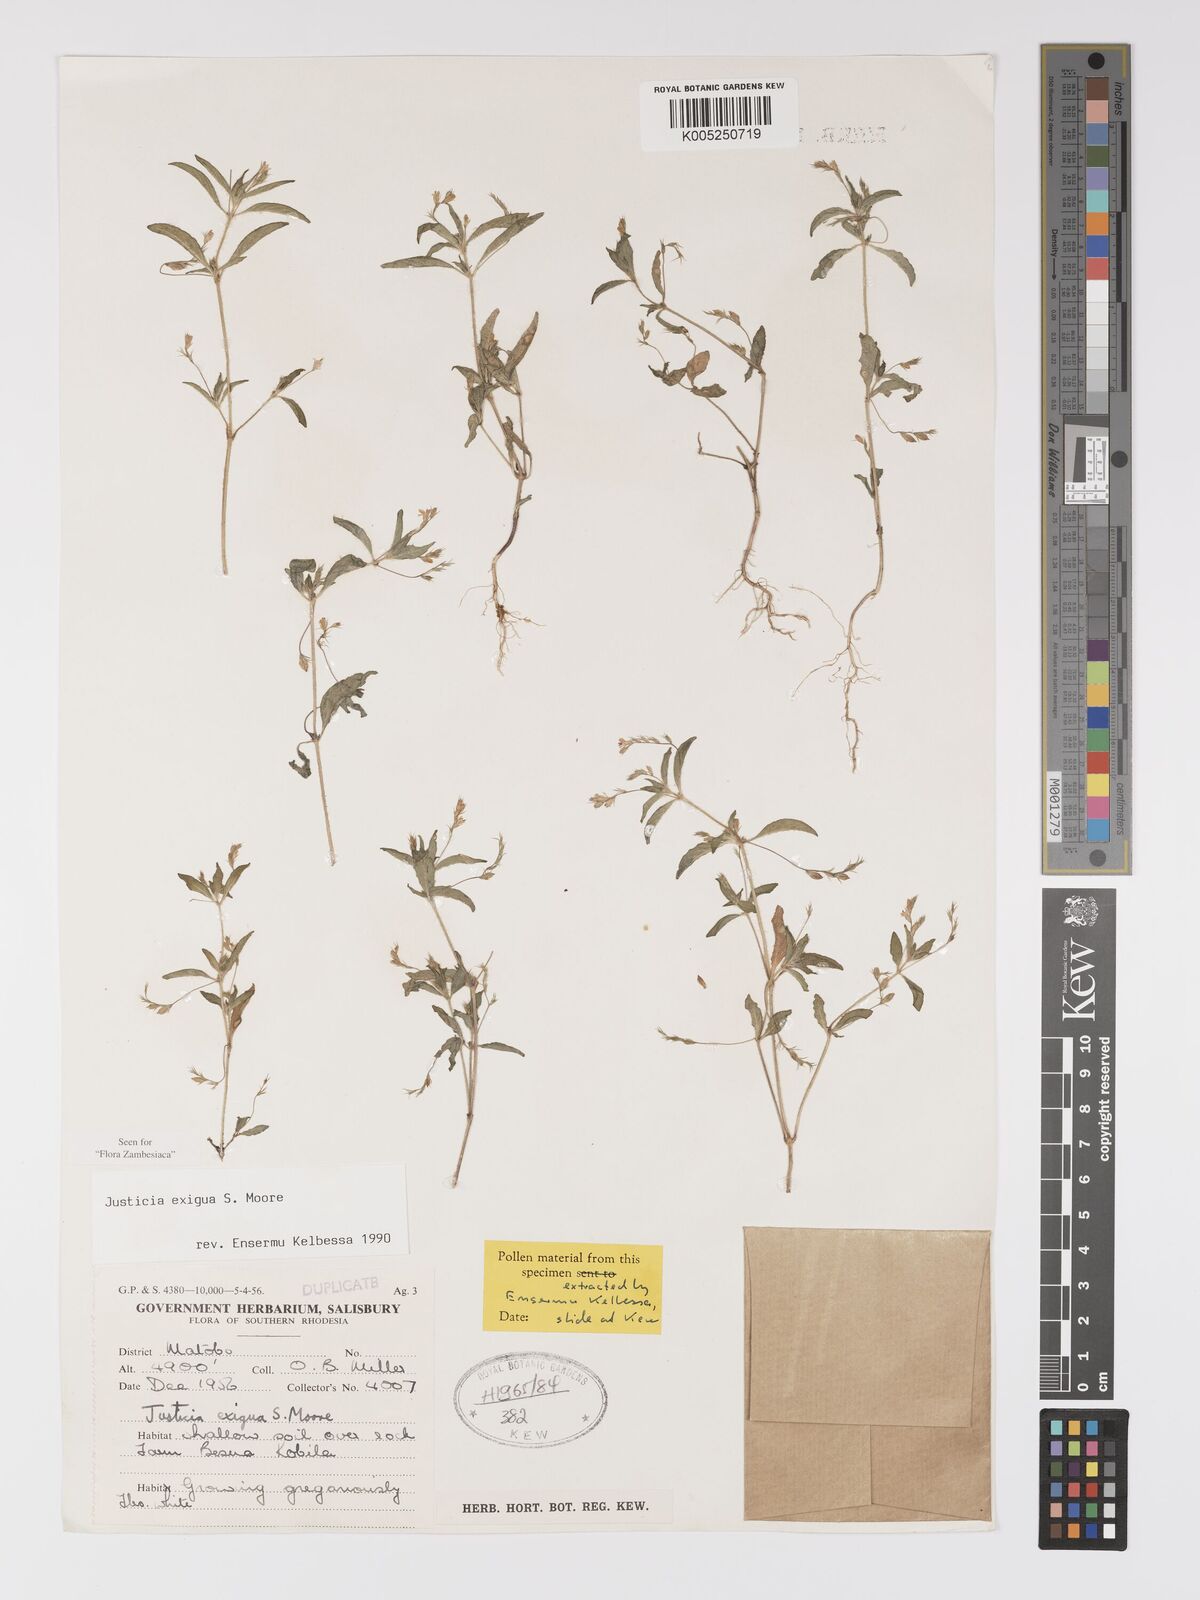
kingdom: Plantae
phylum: Tracheophyta
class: Magnoliopsida
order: Lamiales
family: Acanthaceae
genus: Justicia
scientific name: Justicia exigua
